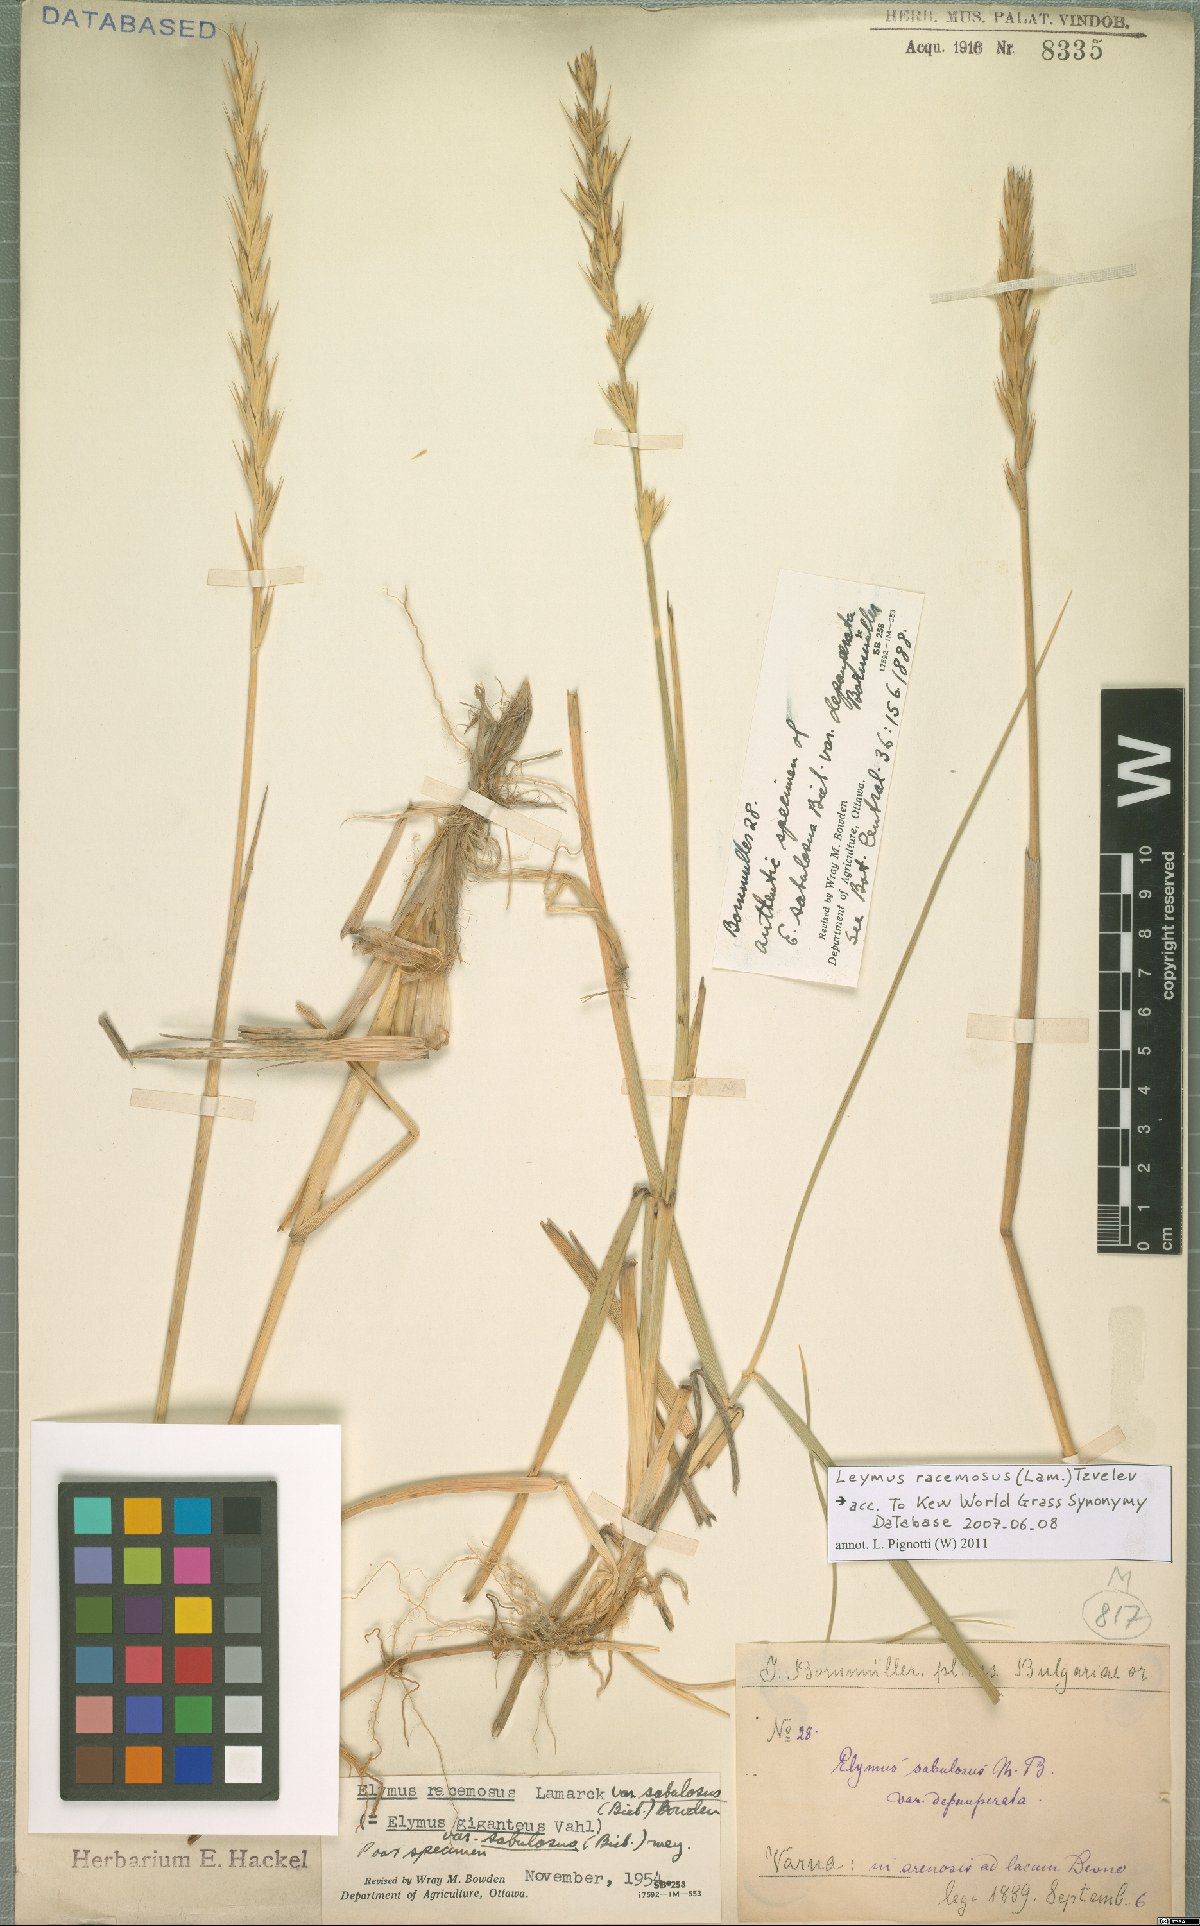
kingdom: Plantae
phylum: Tracheophyta
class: Liliopsida
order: Poales
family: Poaceae
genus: Leymus
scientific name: Leymus racemosus
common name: Mammoth wildrye
